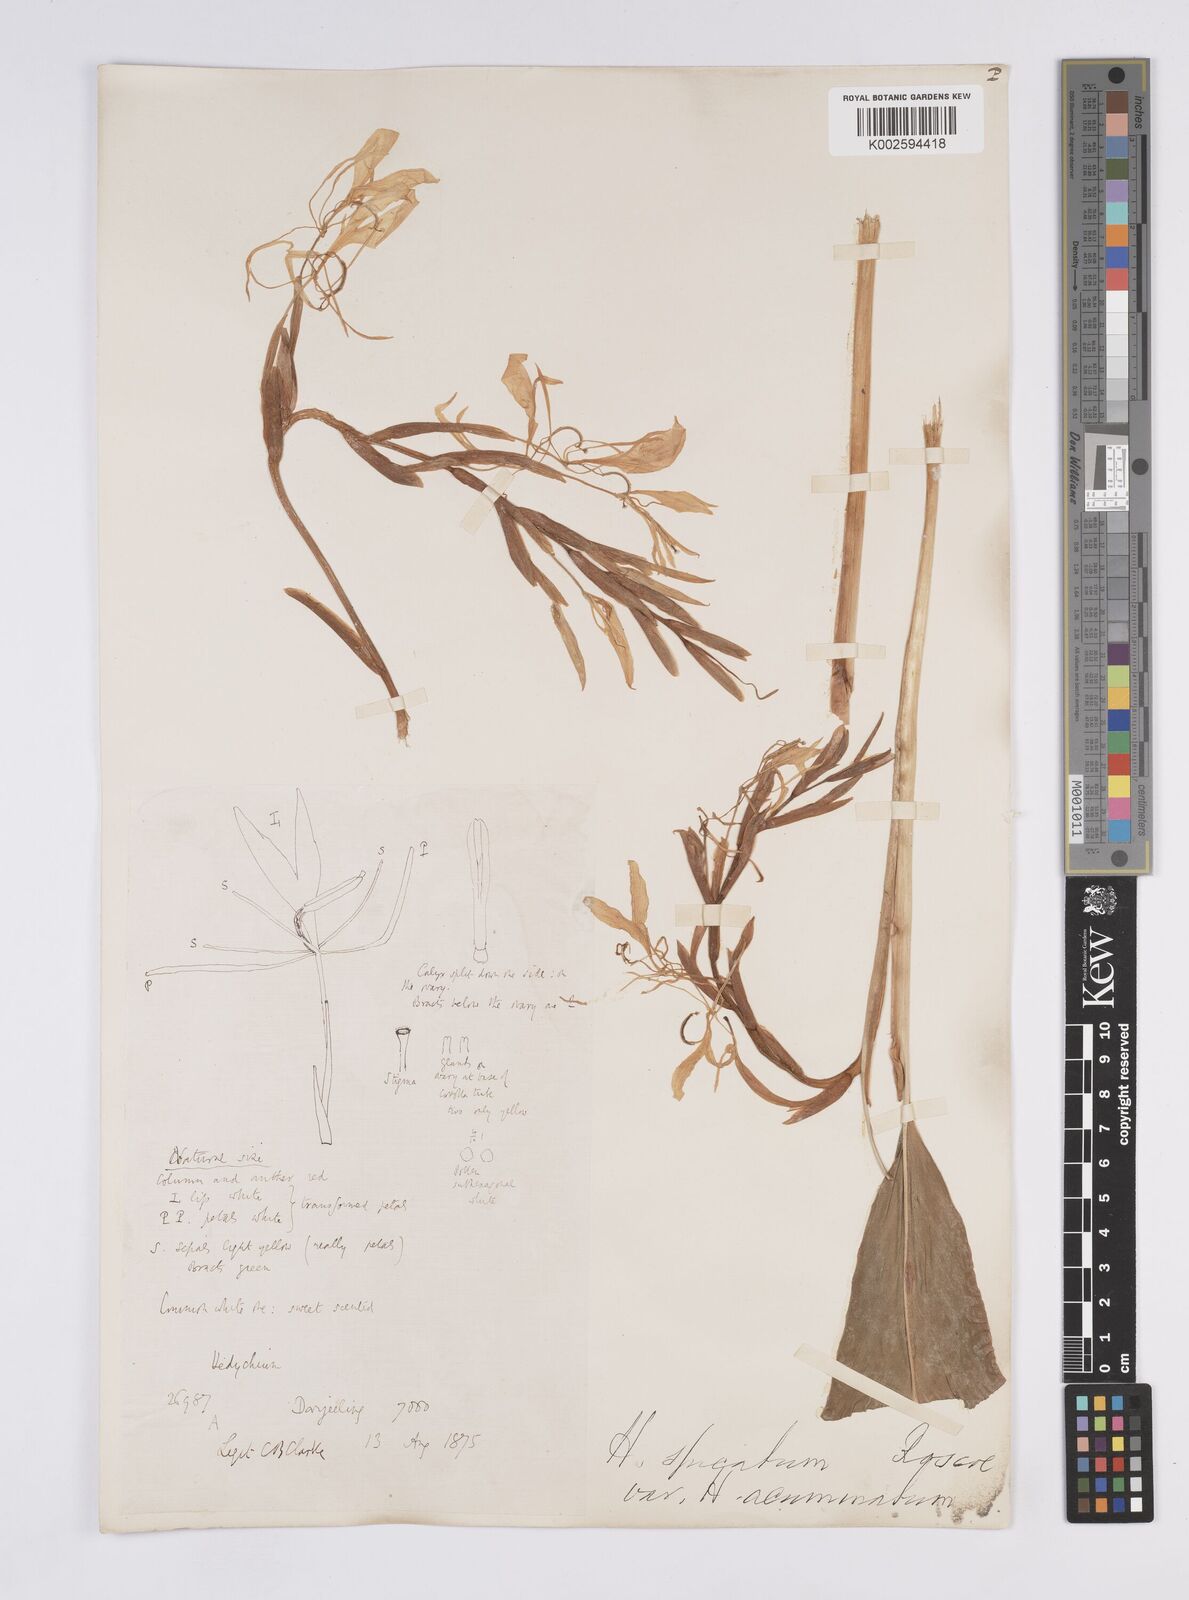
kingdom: Plantae
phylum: Tracheophyta
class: Liliopsida
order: Zingiberales
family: Zingiberaceae
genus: Hedychium
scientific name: Hedychium spicatum
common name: Spiked ginger-lily
